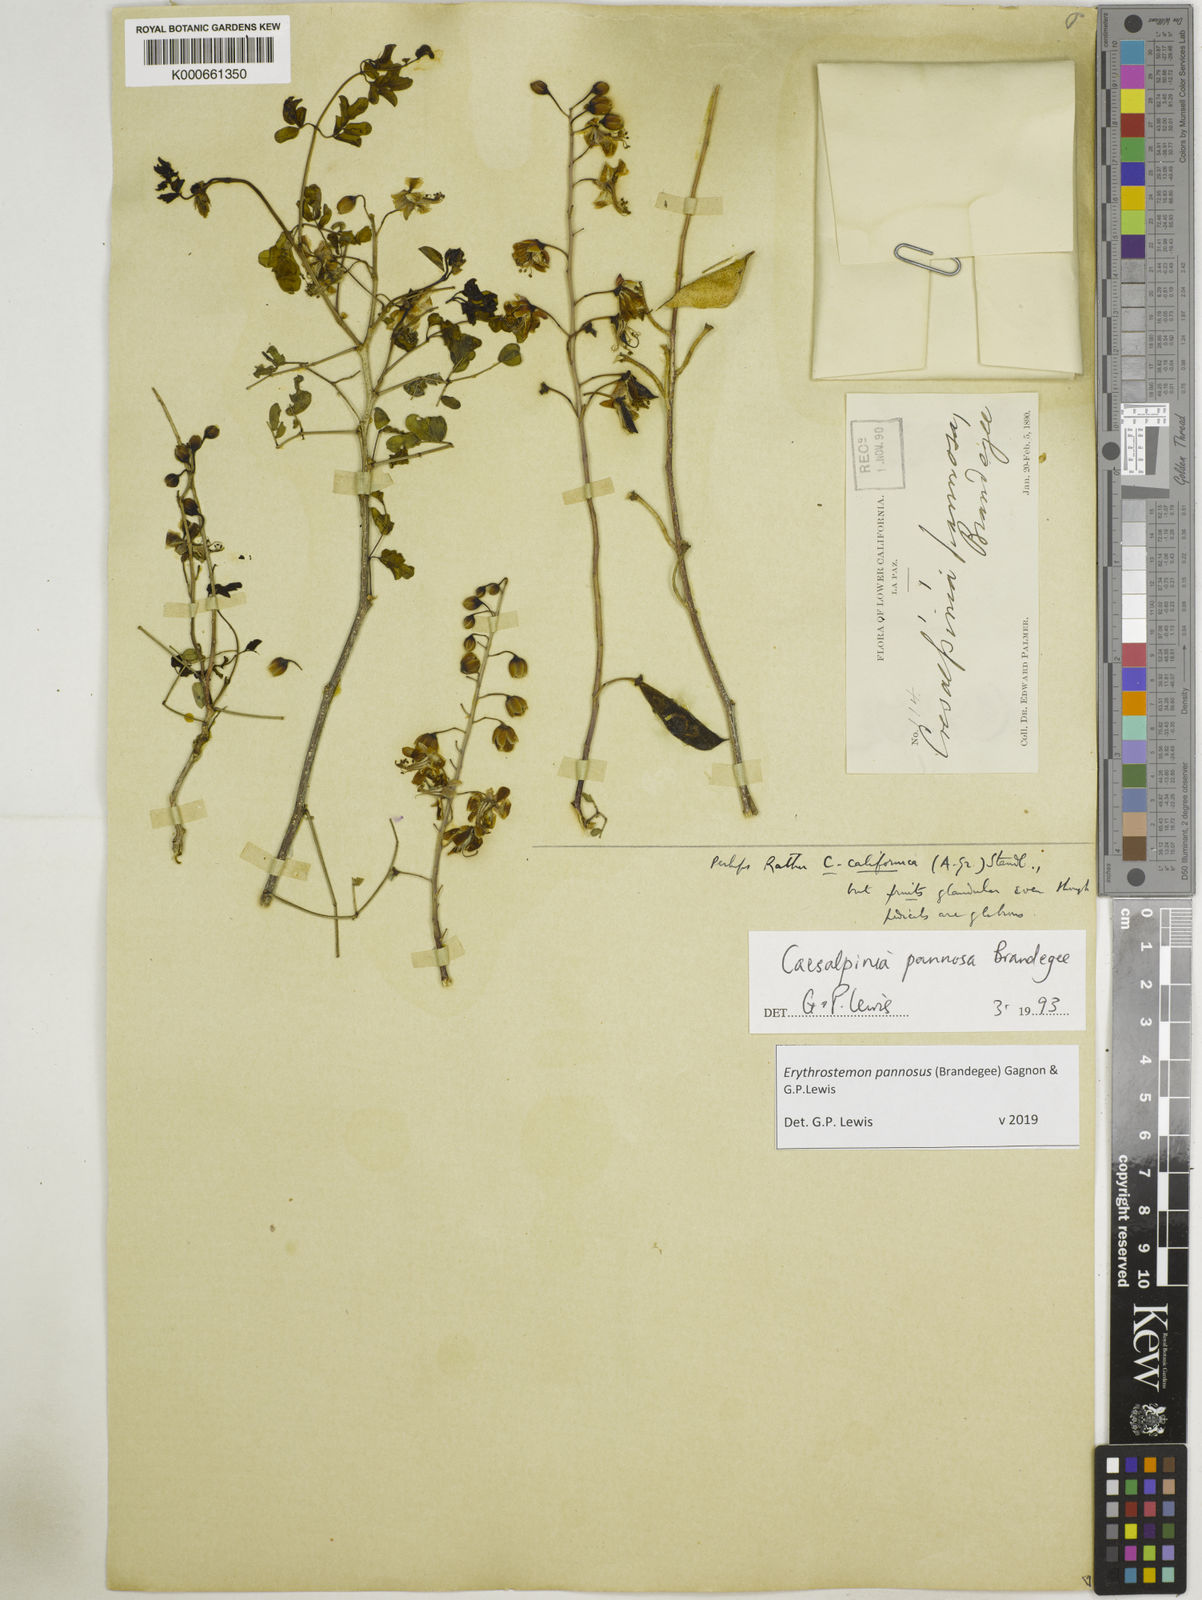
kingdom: Plantae
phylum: Tracheophyta
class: Magnoliopsida
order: Fabales
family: Fabaceae
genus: Erythrostemon
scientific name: Erythrostemon pannosus
